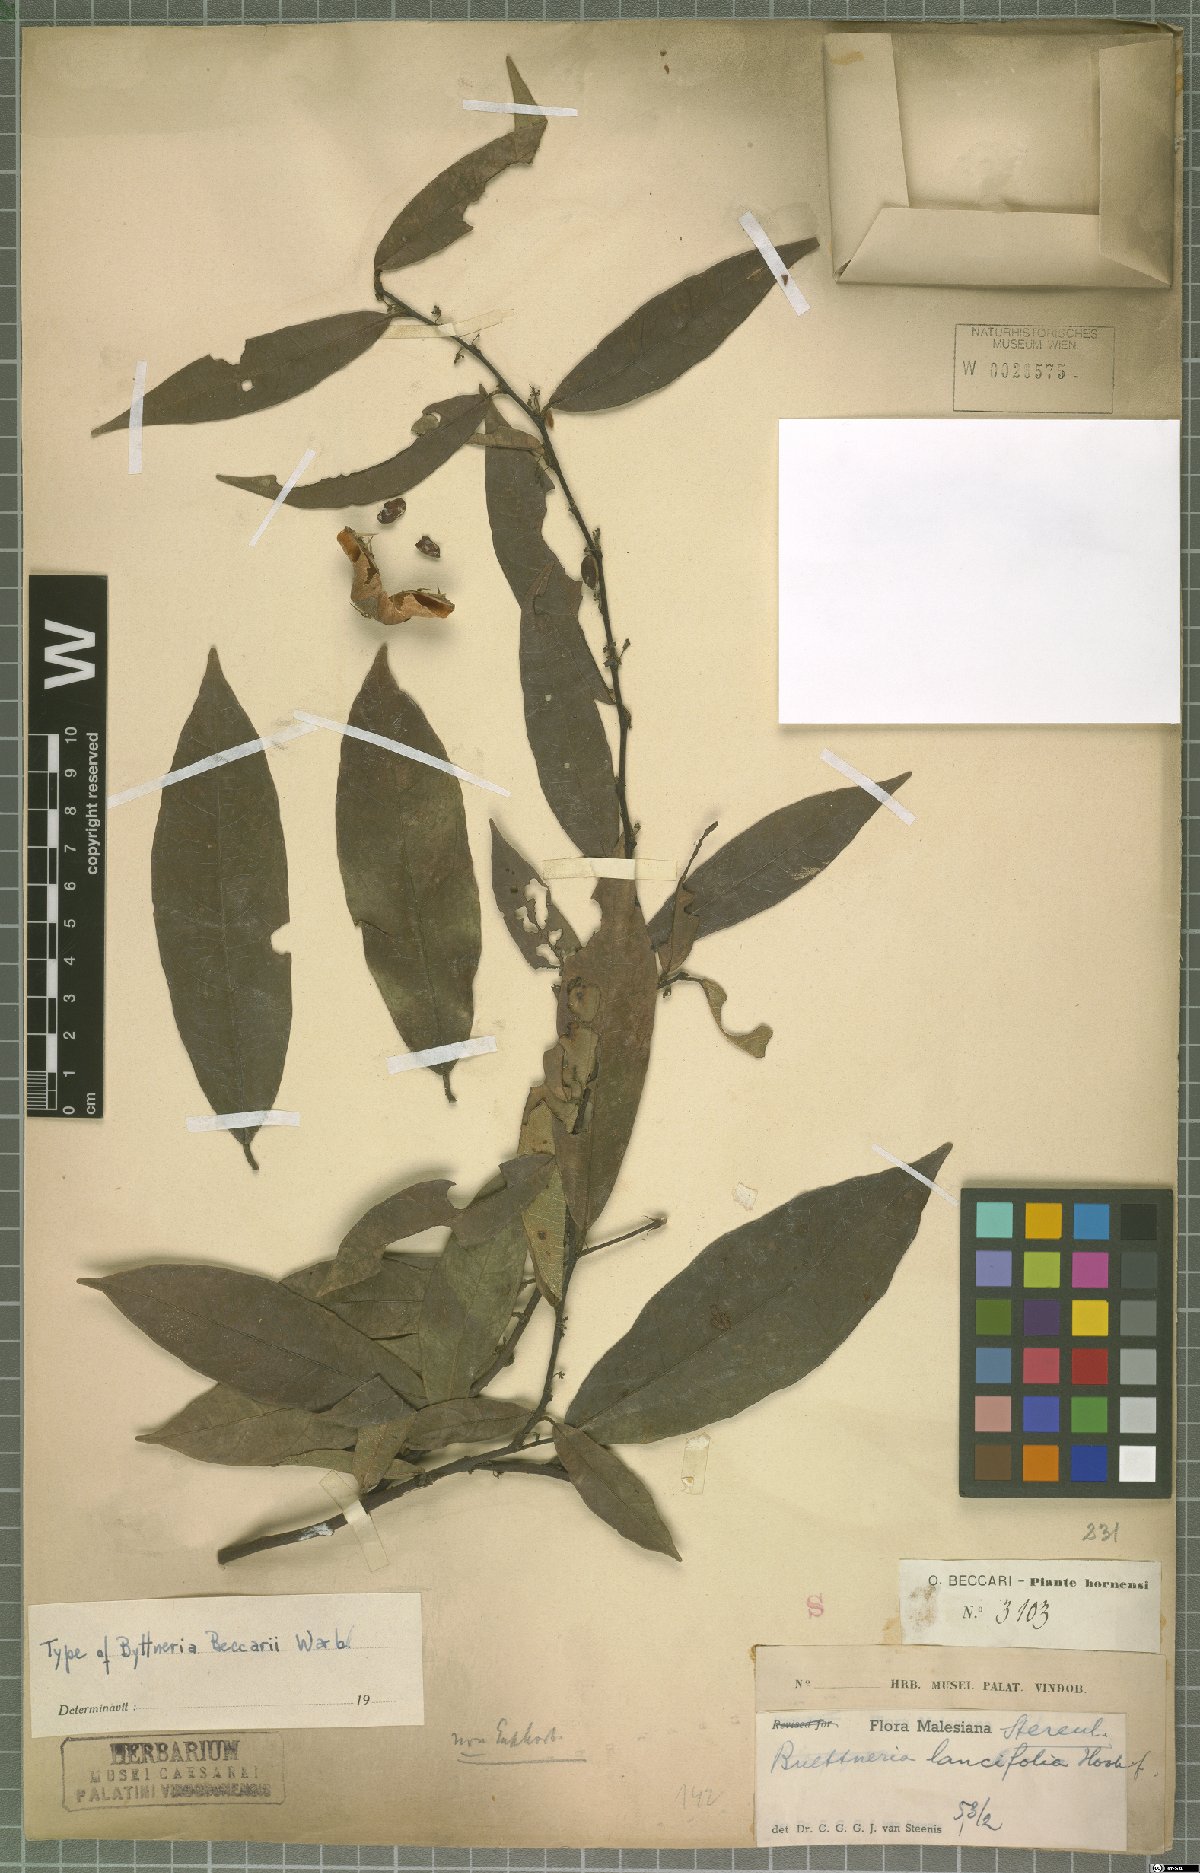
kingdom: Plantae
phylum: Tracheophyta
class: Magnoliopsida
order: Malvales
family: Malvaceae
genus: Byttneria
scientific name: Byttneria lancifolia
